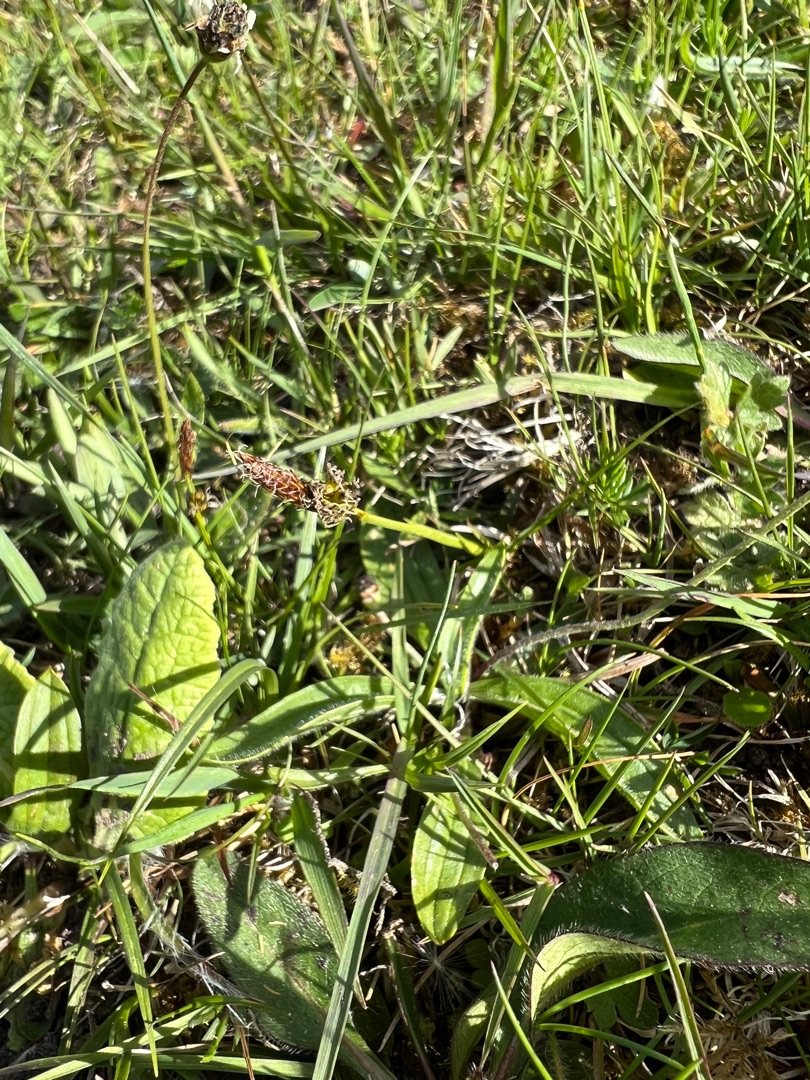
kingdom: Plantae
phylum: Tracheophyta
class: Liliopsida
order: Poales
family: Cyperaceae
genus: Carex
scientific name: Carex caryophyllea
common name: Vår-star
